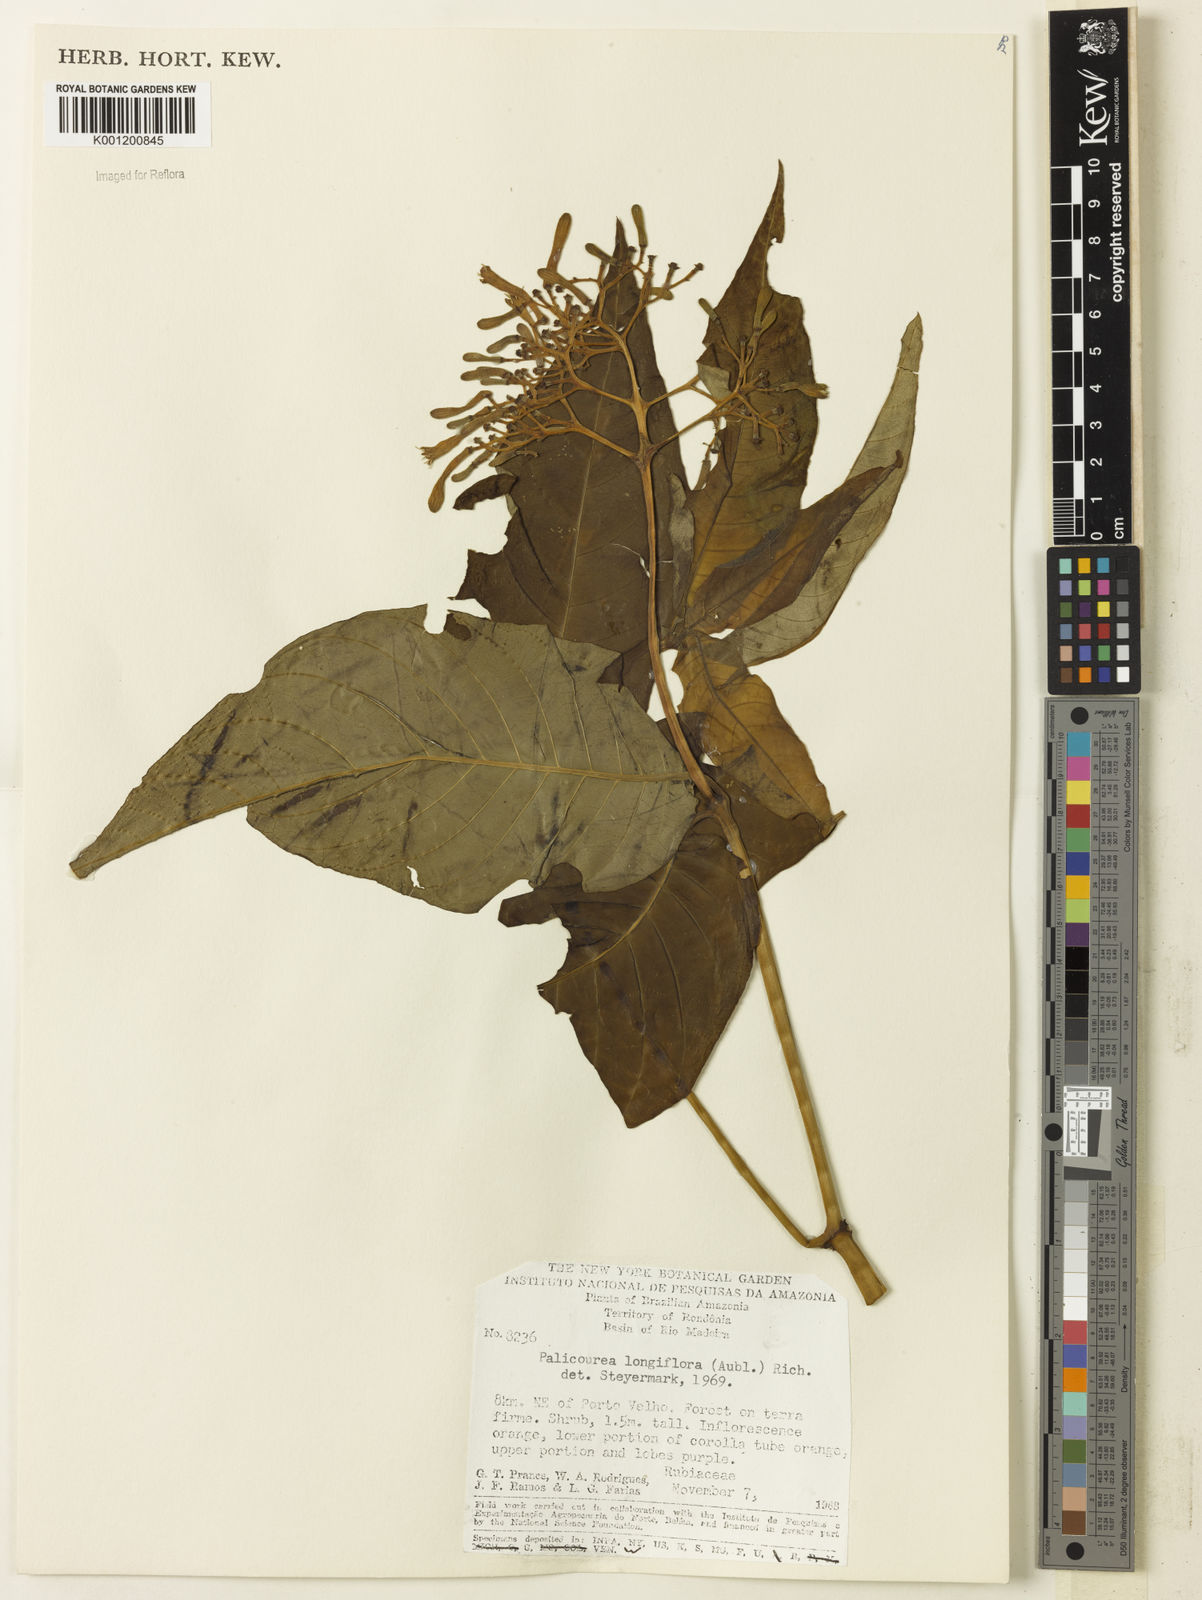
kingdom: Plantae
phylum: Tracheophyta
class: Magnoliopsida
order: Gentianales
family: Rubiaceae
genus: Palicourea
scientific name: Palicourea longiflora
